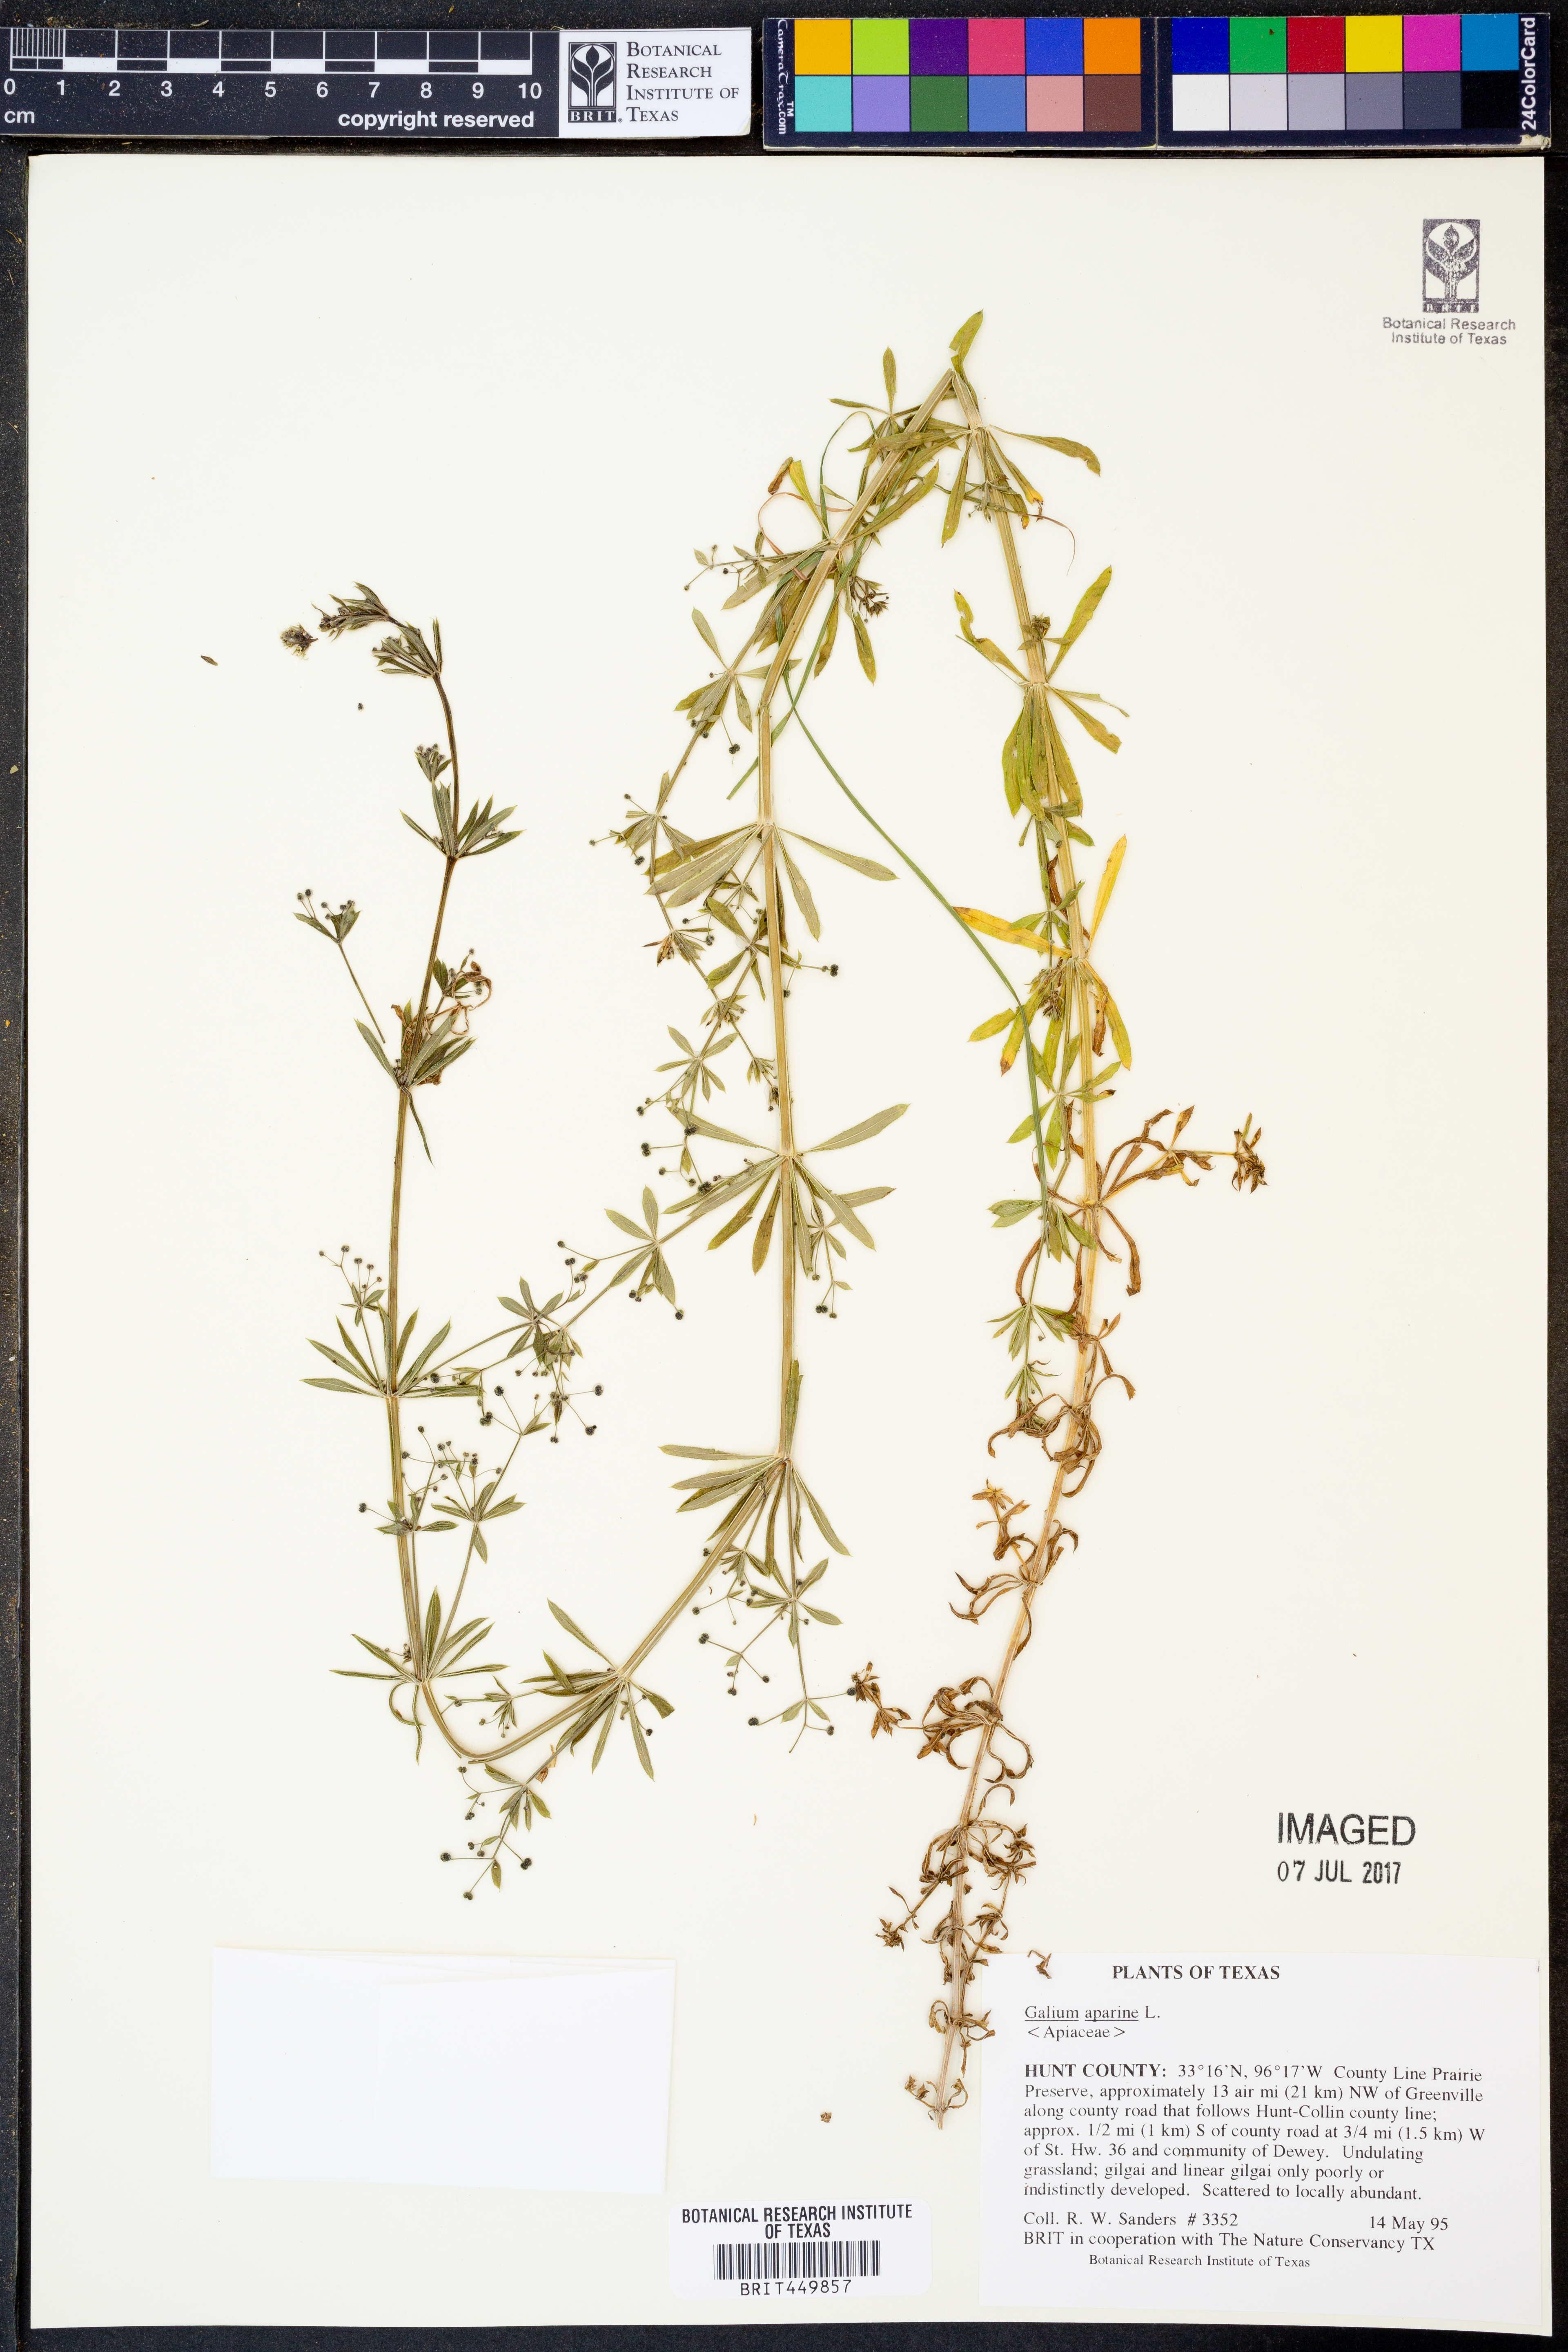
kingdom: Plantae
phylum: Tracheophyta
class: Magnoliopsida
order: Gentianales
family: Rubiaceae
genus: Galium
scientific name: Galium aparine
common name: Cleavers
